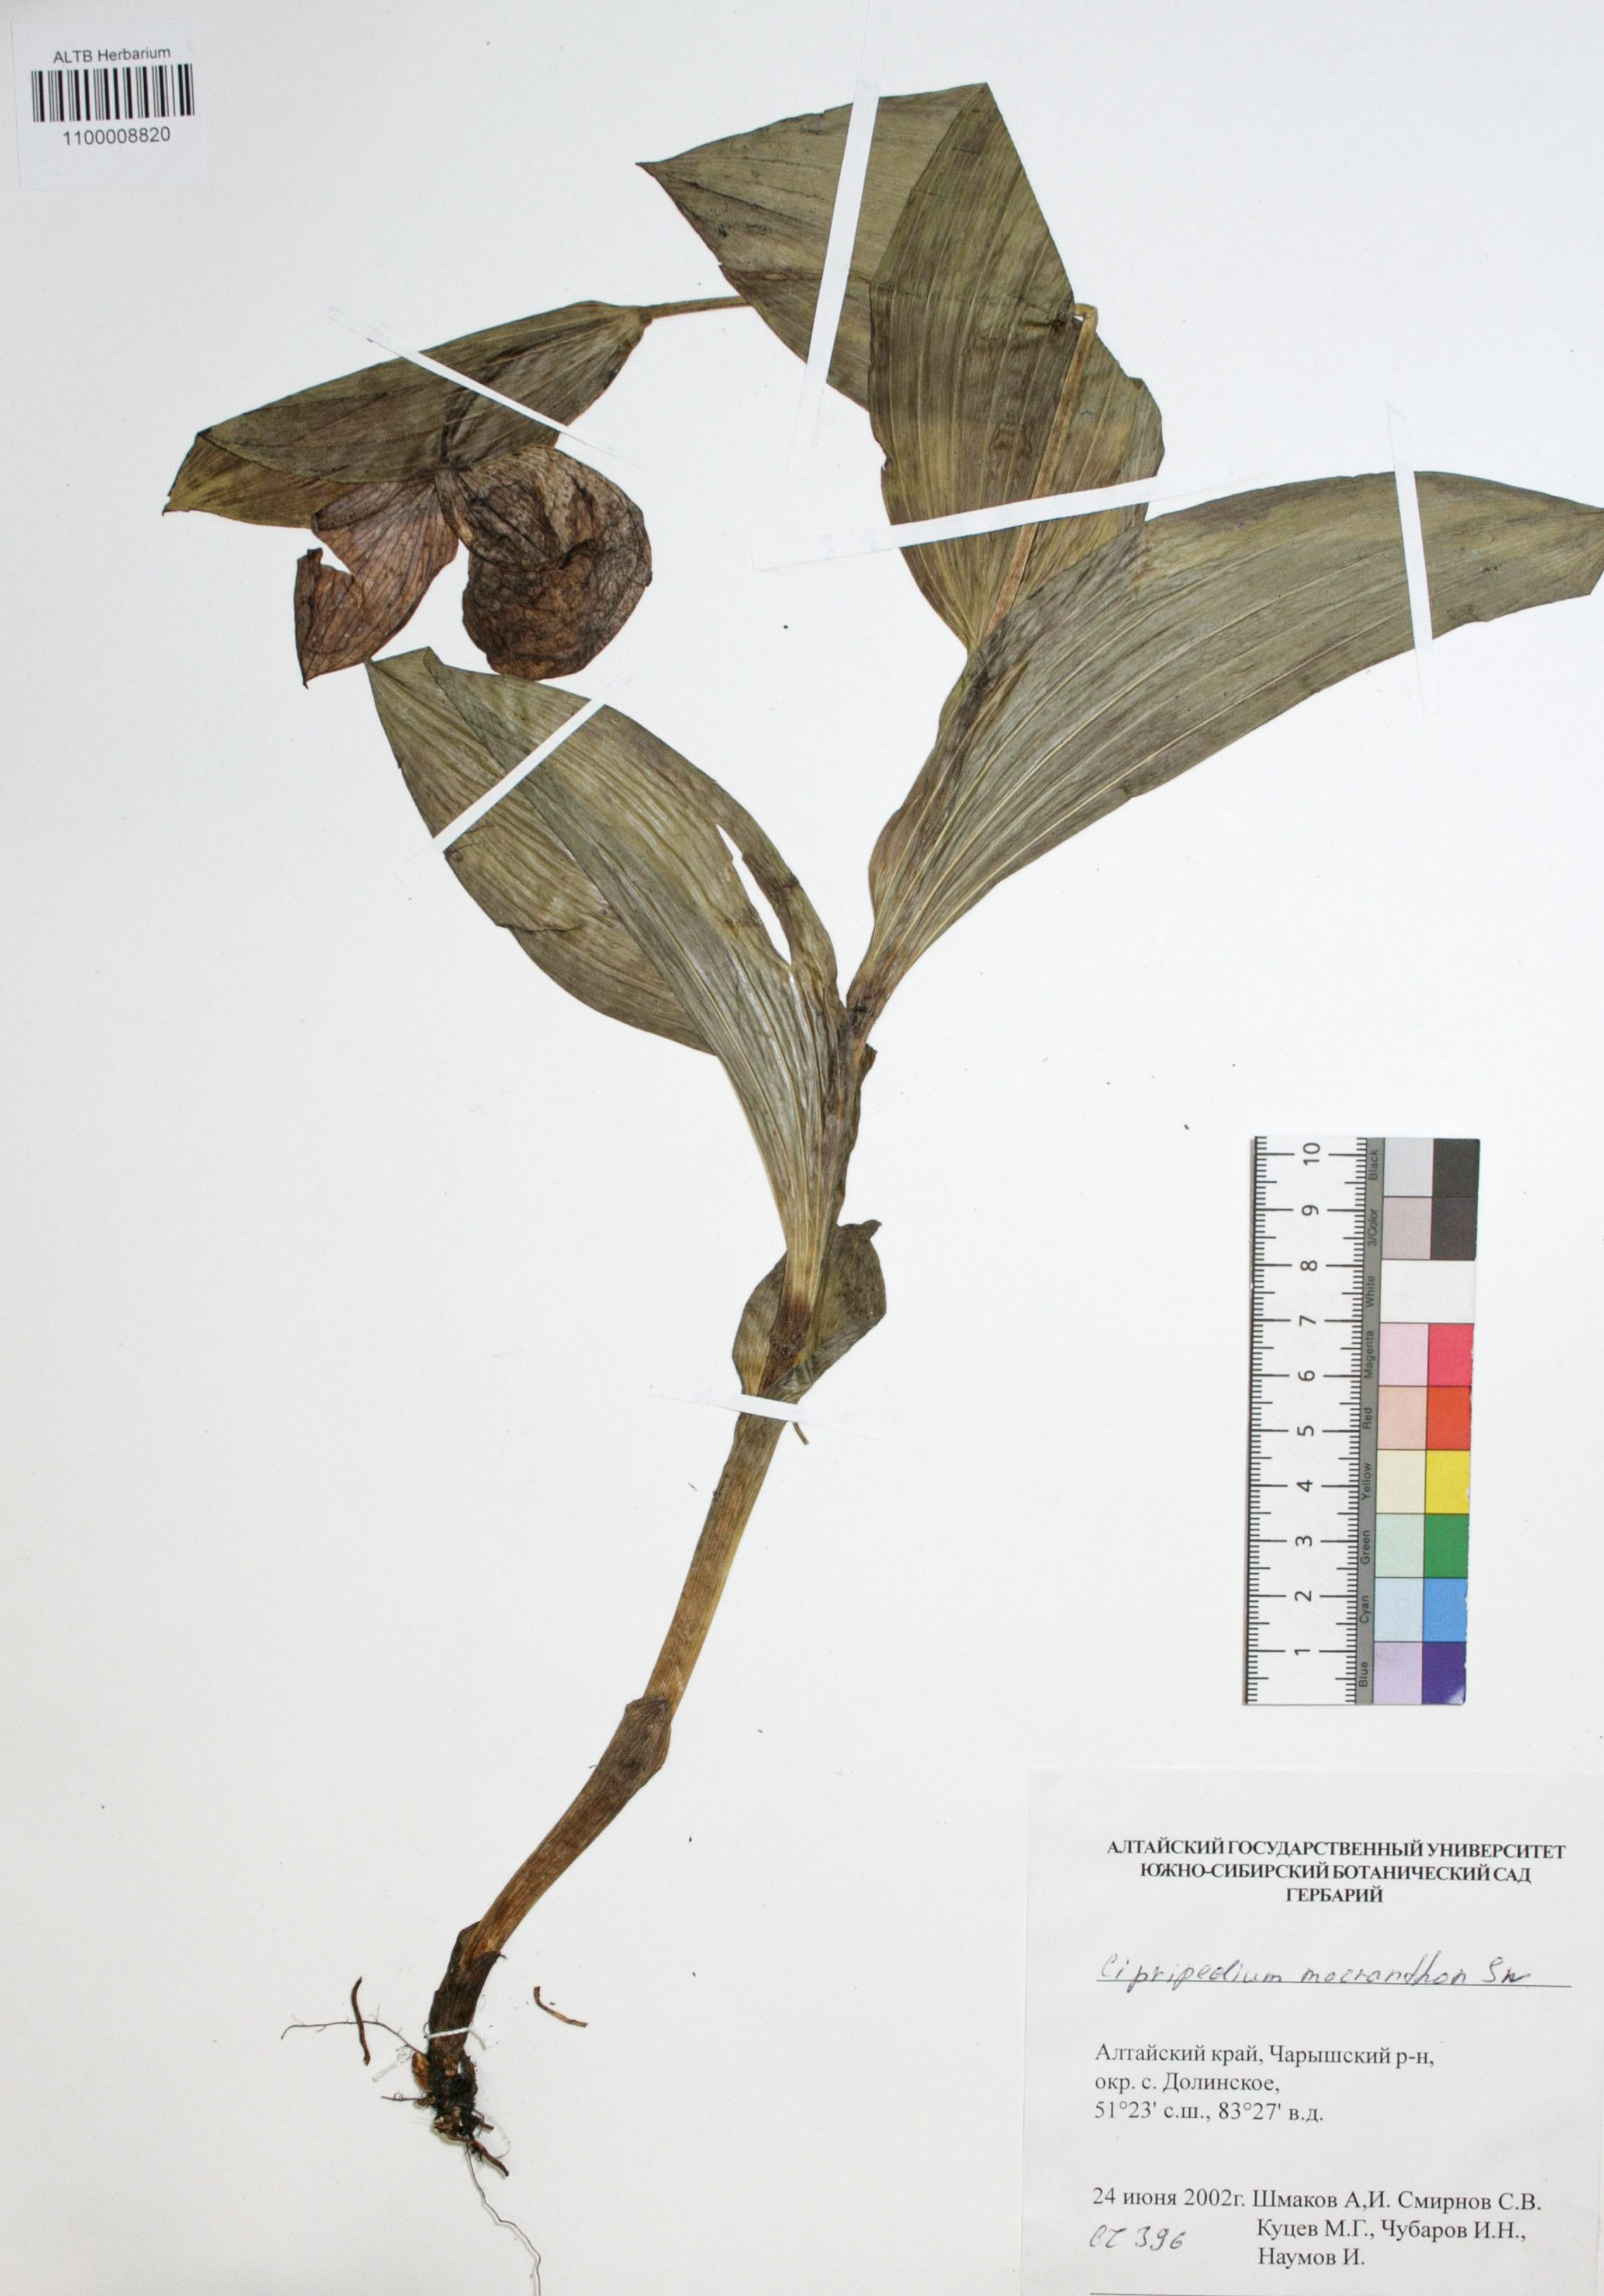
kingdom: Plantae
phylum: Tracheophyta
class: Liliopsida
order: Asparagales
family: Orchidaceae
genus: Cypripedium
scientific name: Cypripedium macranthon
